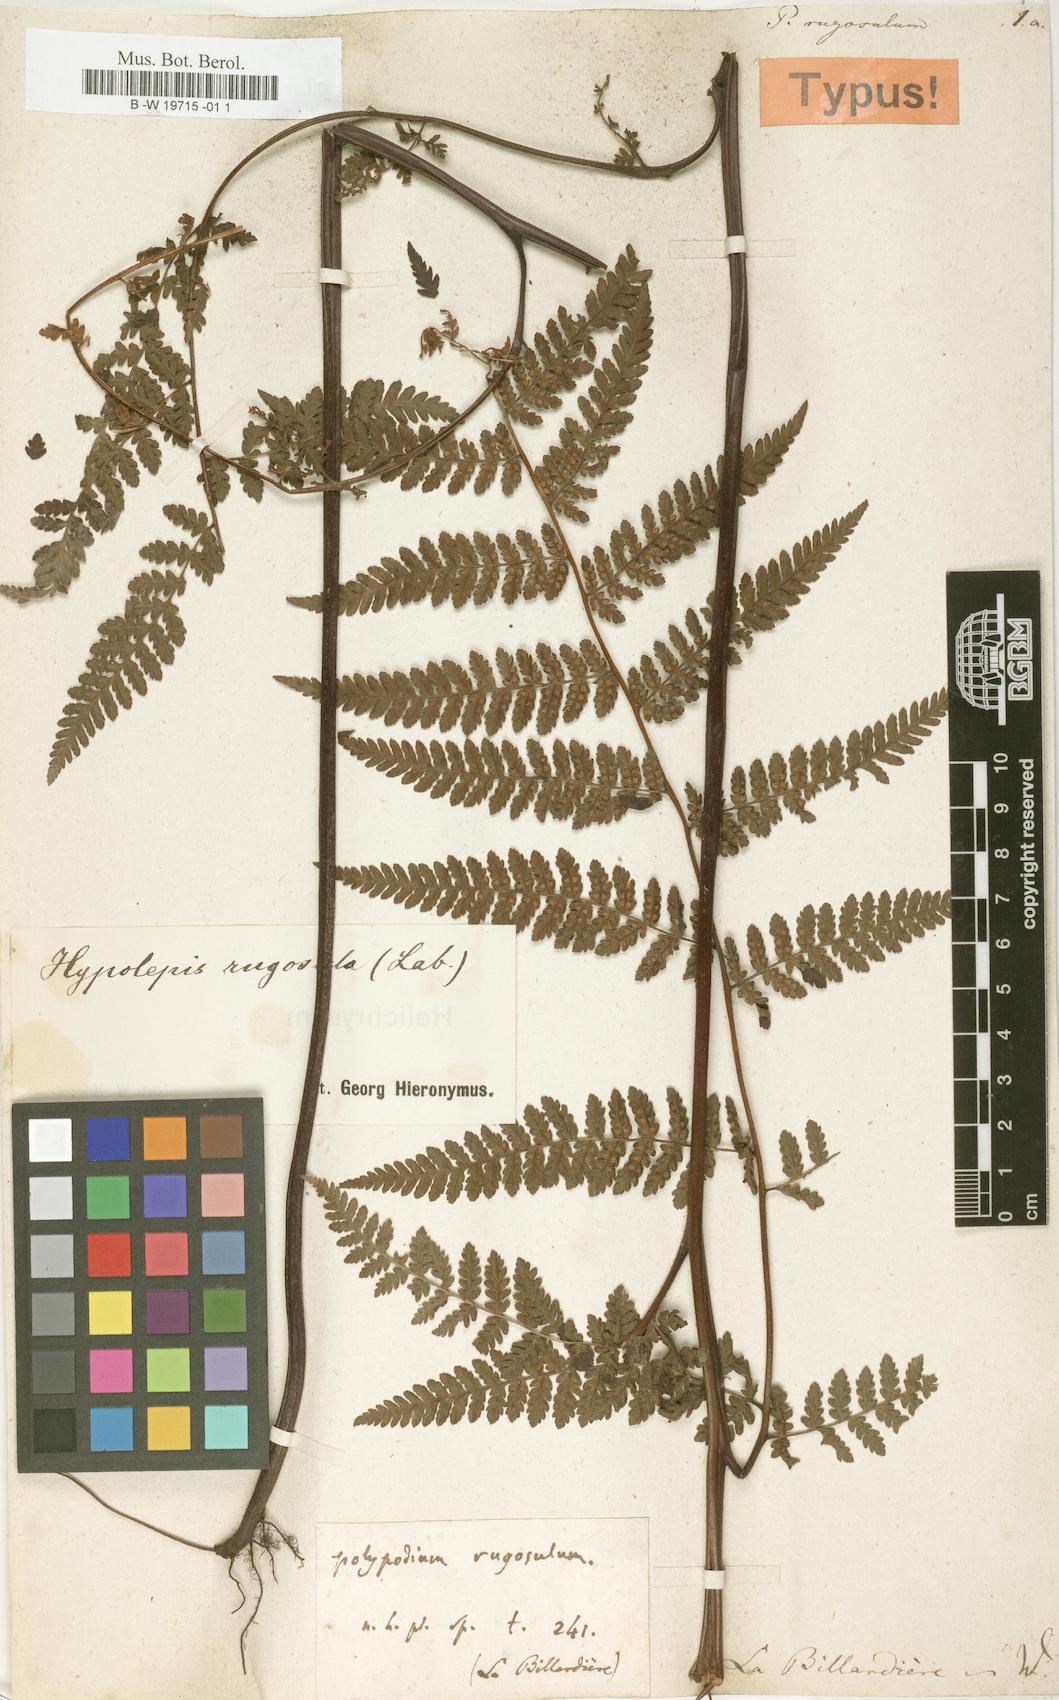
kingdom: Plantae
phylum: Tracheophyta
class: Polypodiopsida
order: Polypodiales
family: Dennstaedtiaceae
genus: Hypolepis
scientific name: Hypolepis rugosula
